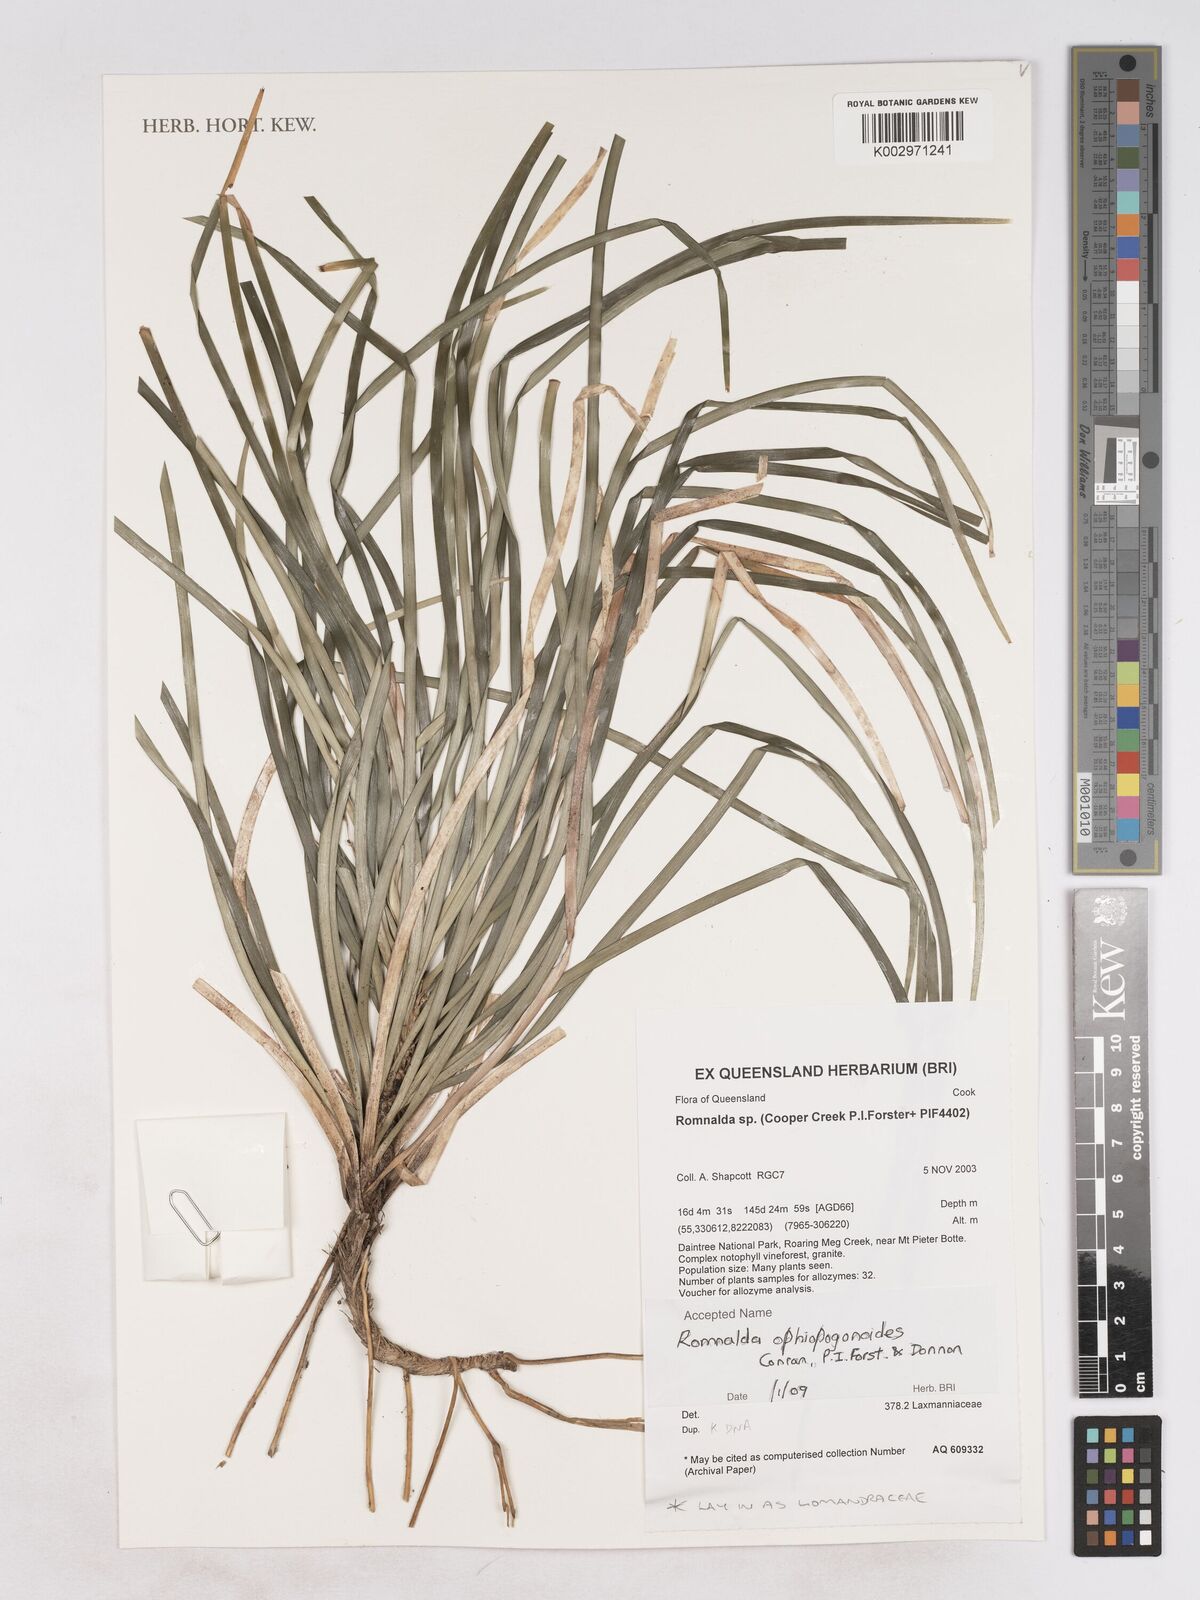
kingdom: Plantae
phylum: Tracheophyta
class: Liliopsida
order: Asparagales
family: Asparagaceae
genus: Romnalda
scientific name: Romnalda ophiopogonoides
